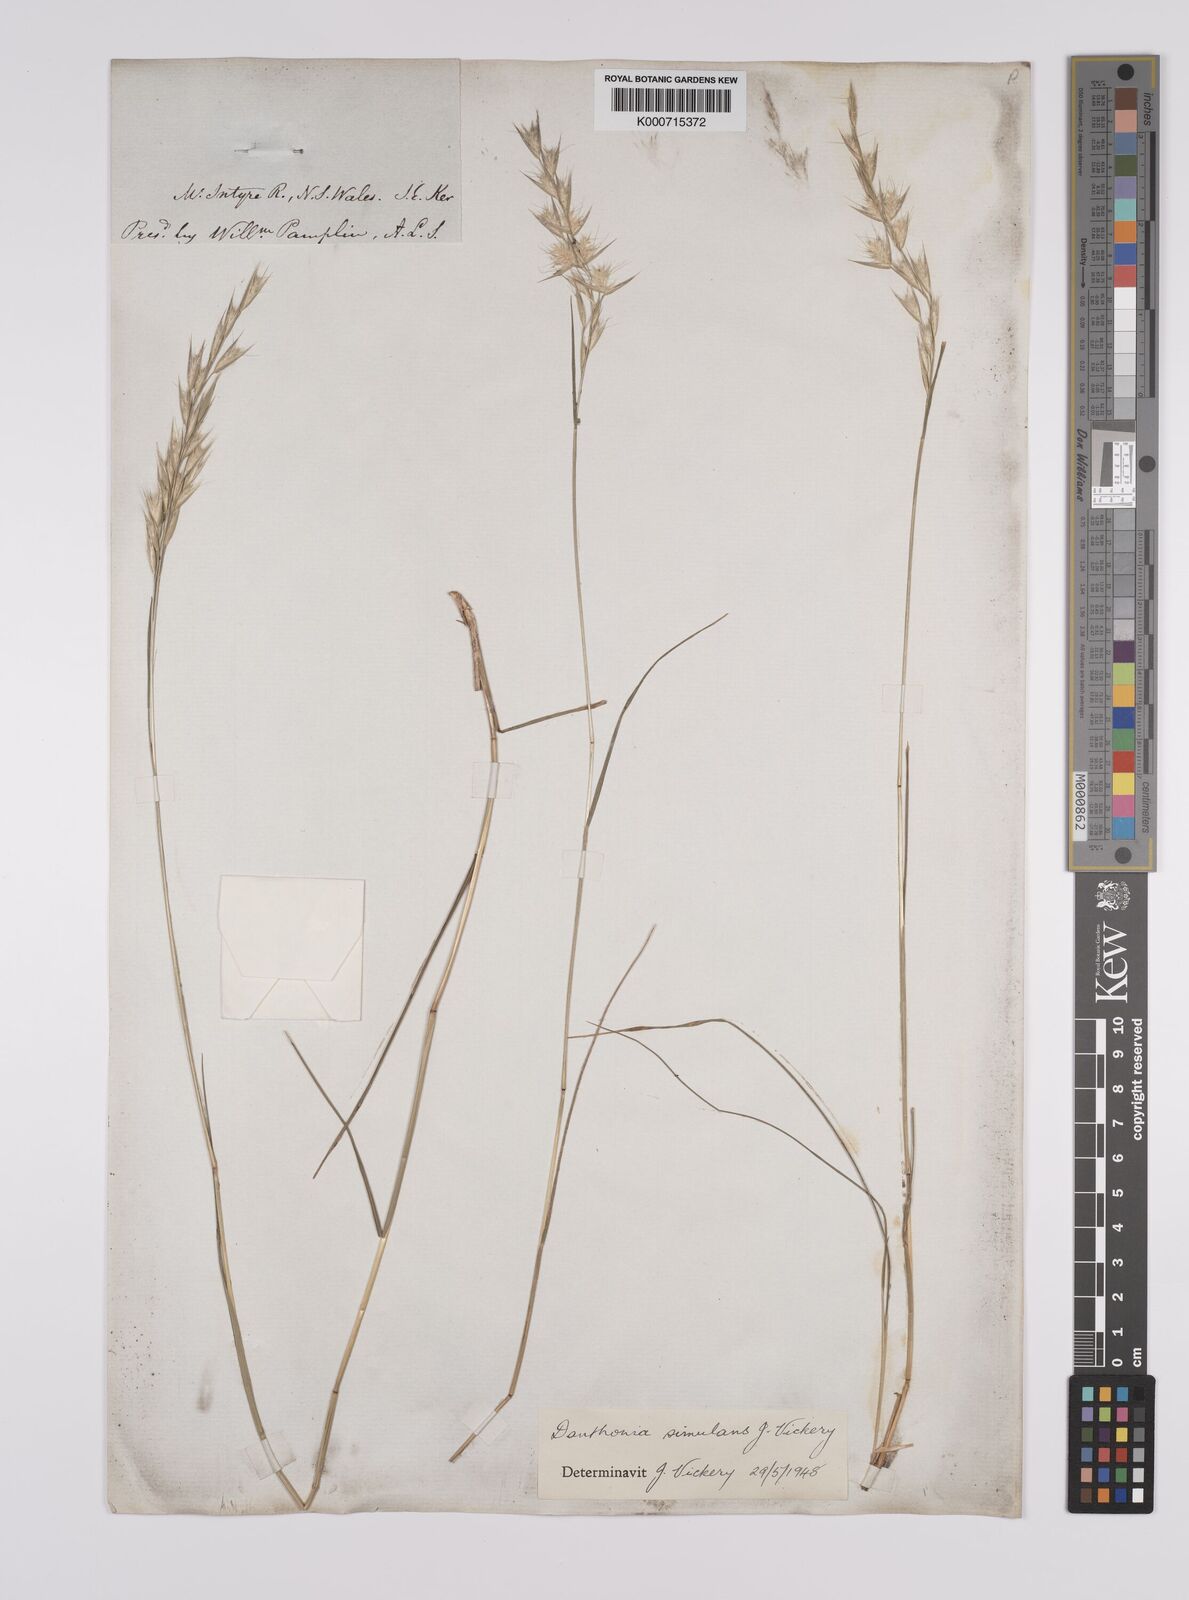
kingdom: Plantae
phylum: Tracheophyta
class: Liliopsida
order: Poales
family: Poaceae
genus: Rytidosperma
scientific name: Rytidosperma bipartitum
